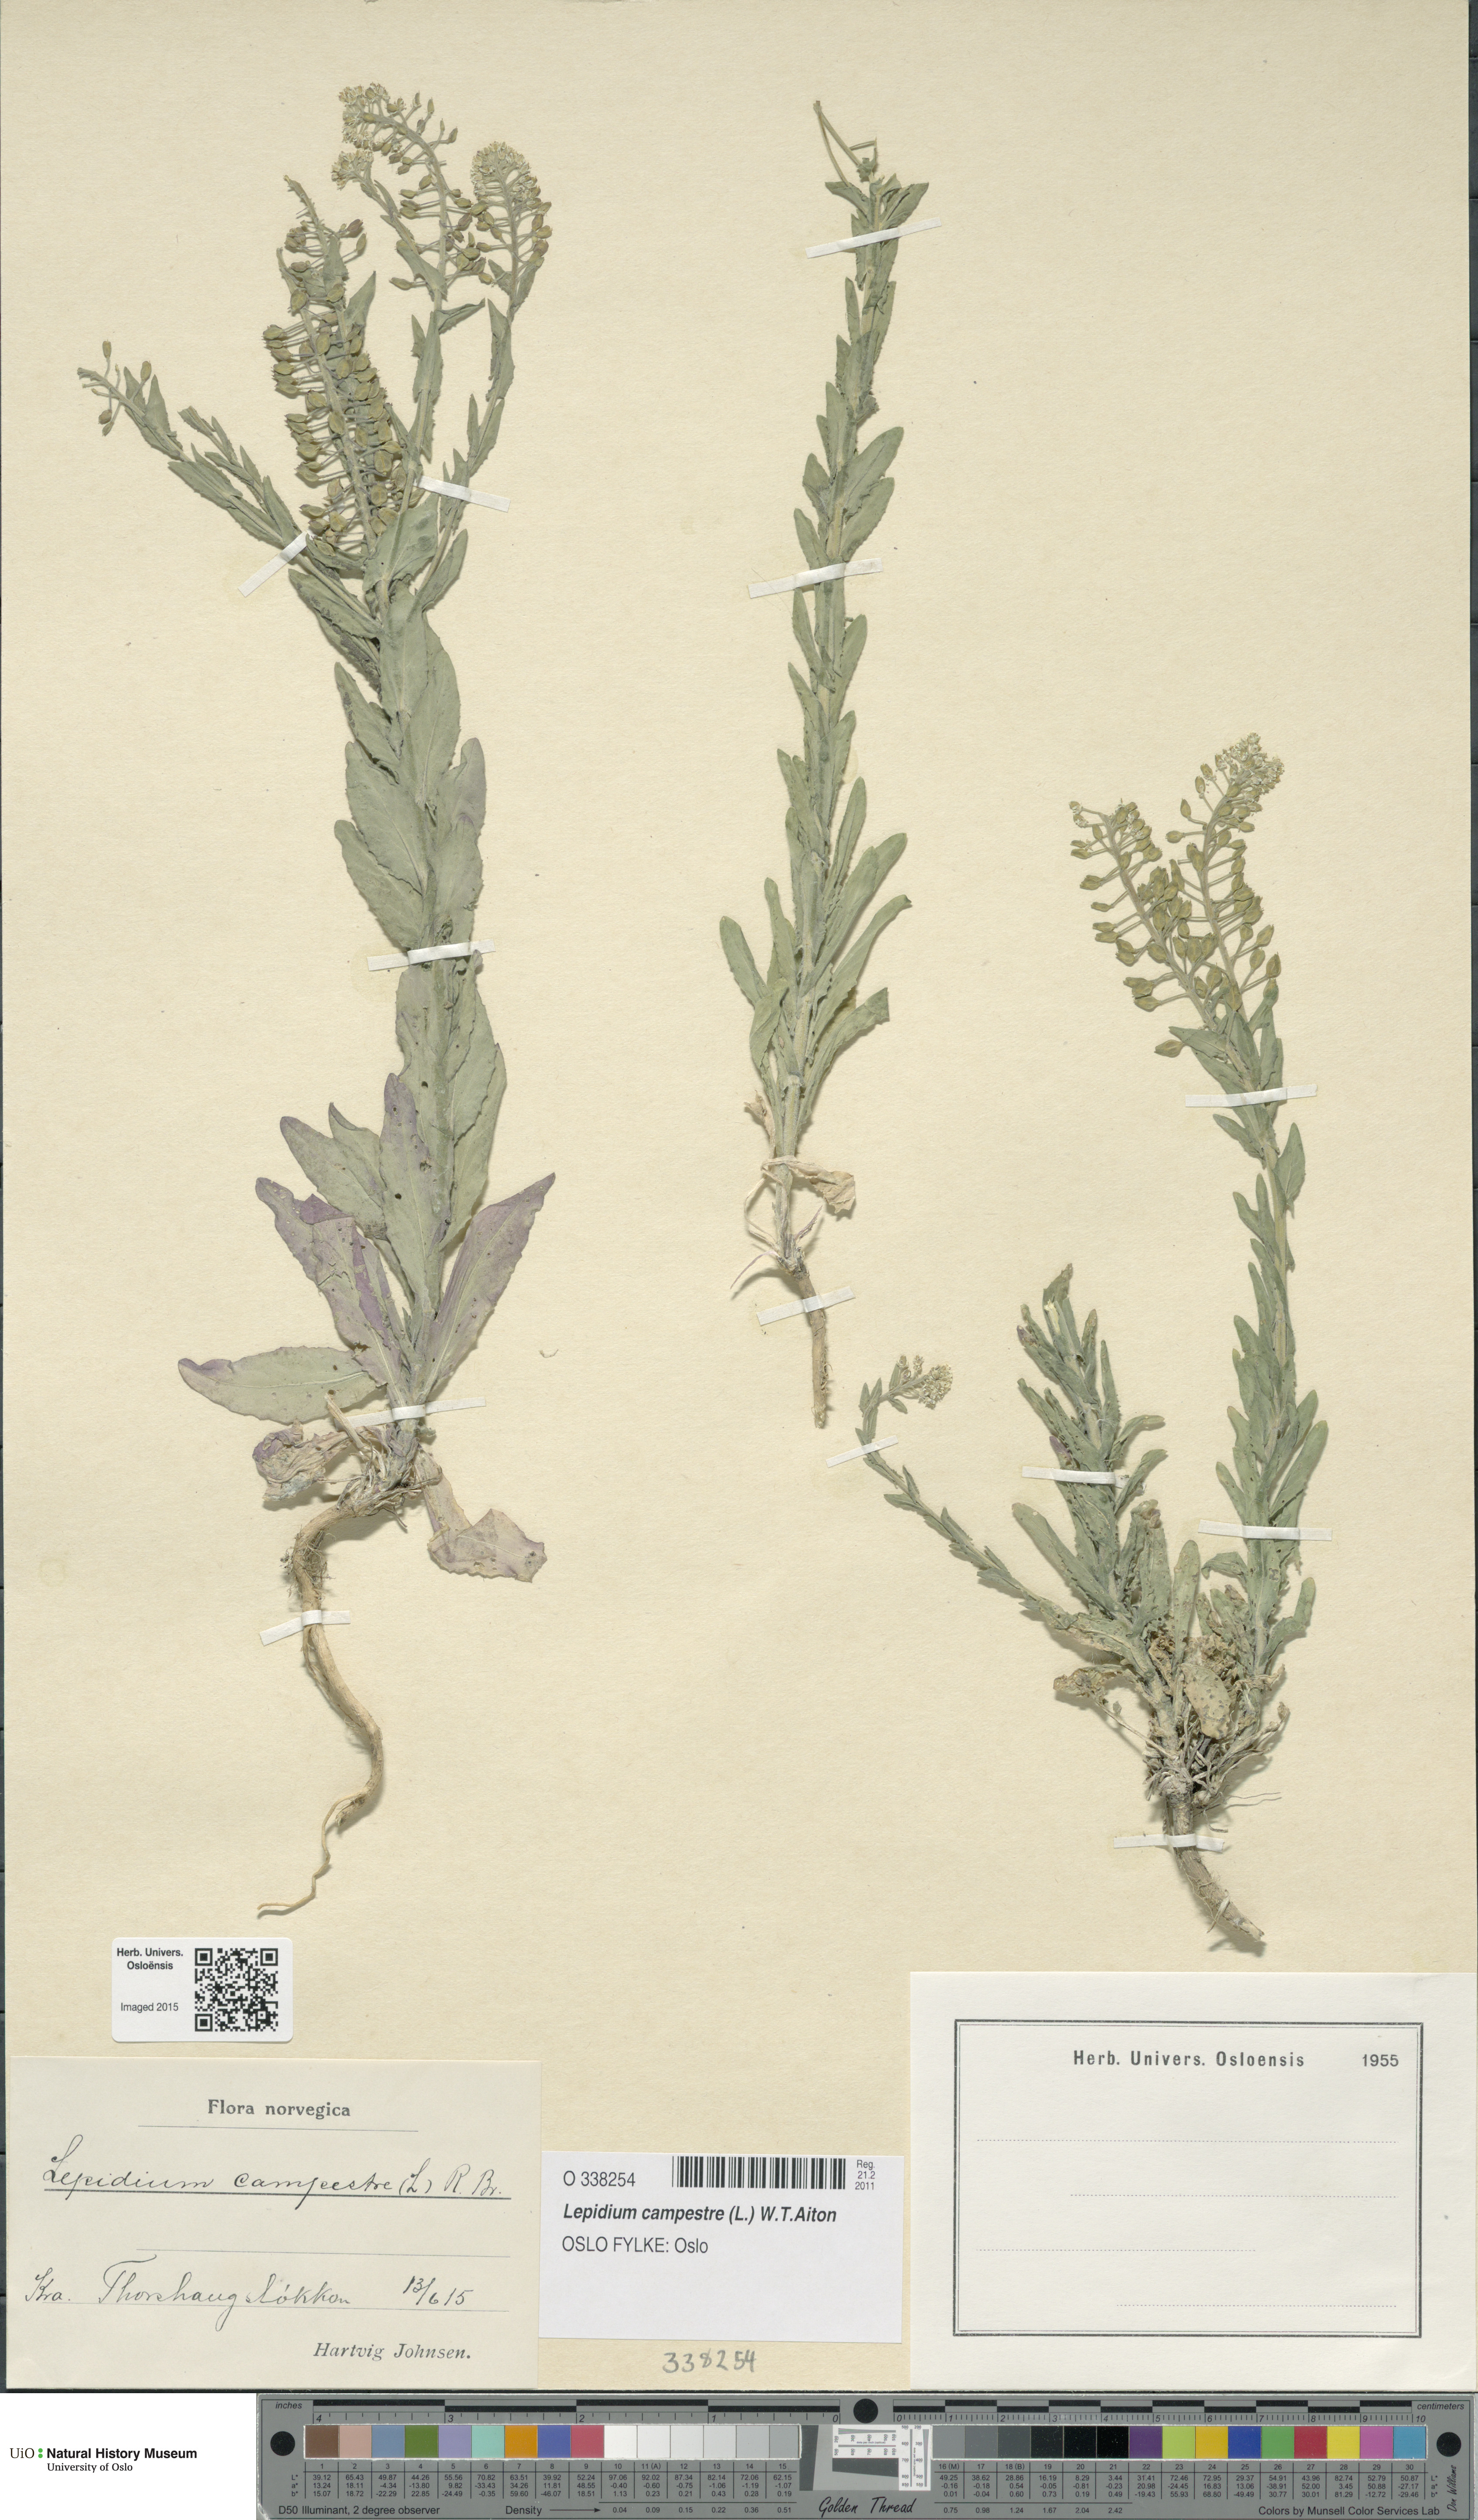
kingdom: Plantae
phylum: Tracheophyta
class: Magnoliopsida
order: Brassicales
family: Brassicaceae
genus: Lepidium
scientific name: Lepidium campestre
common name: Field pepperwort
